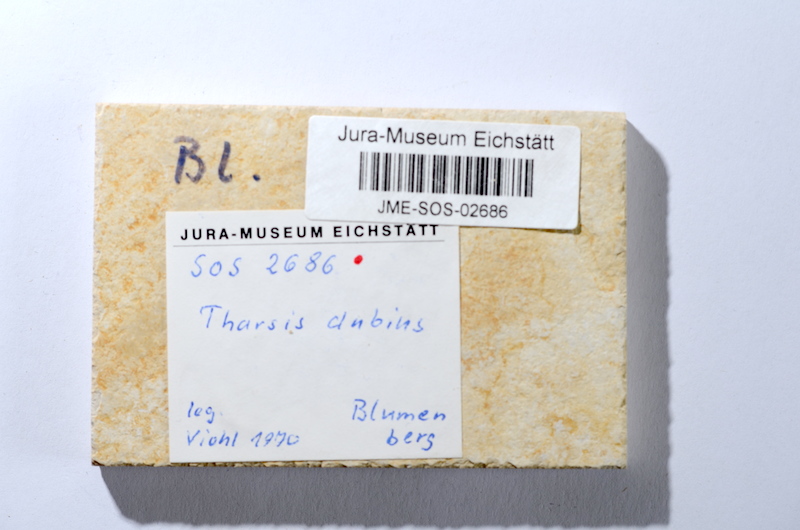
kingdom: Animalia
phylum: Chordata
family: Ascalaboidae
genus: Tharsis
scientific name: Tharsis dubius
